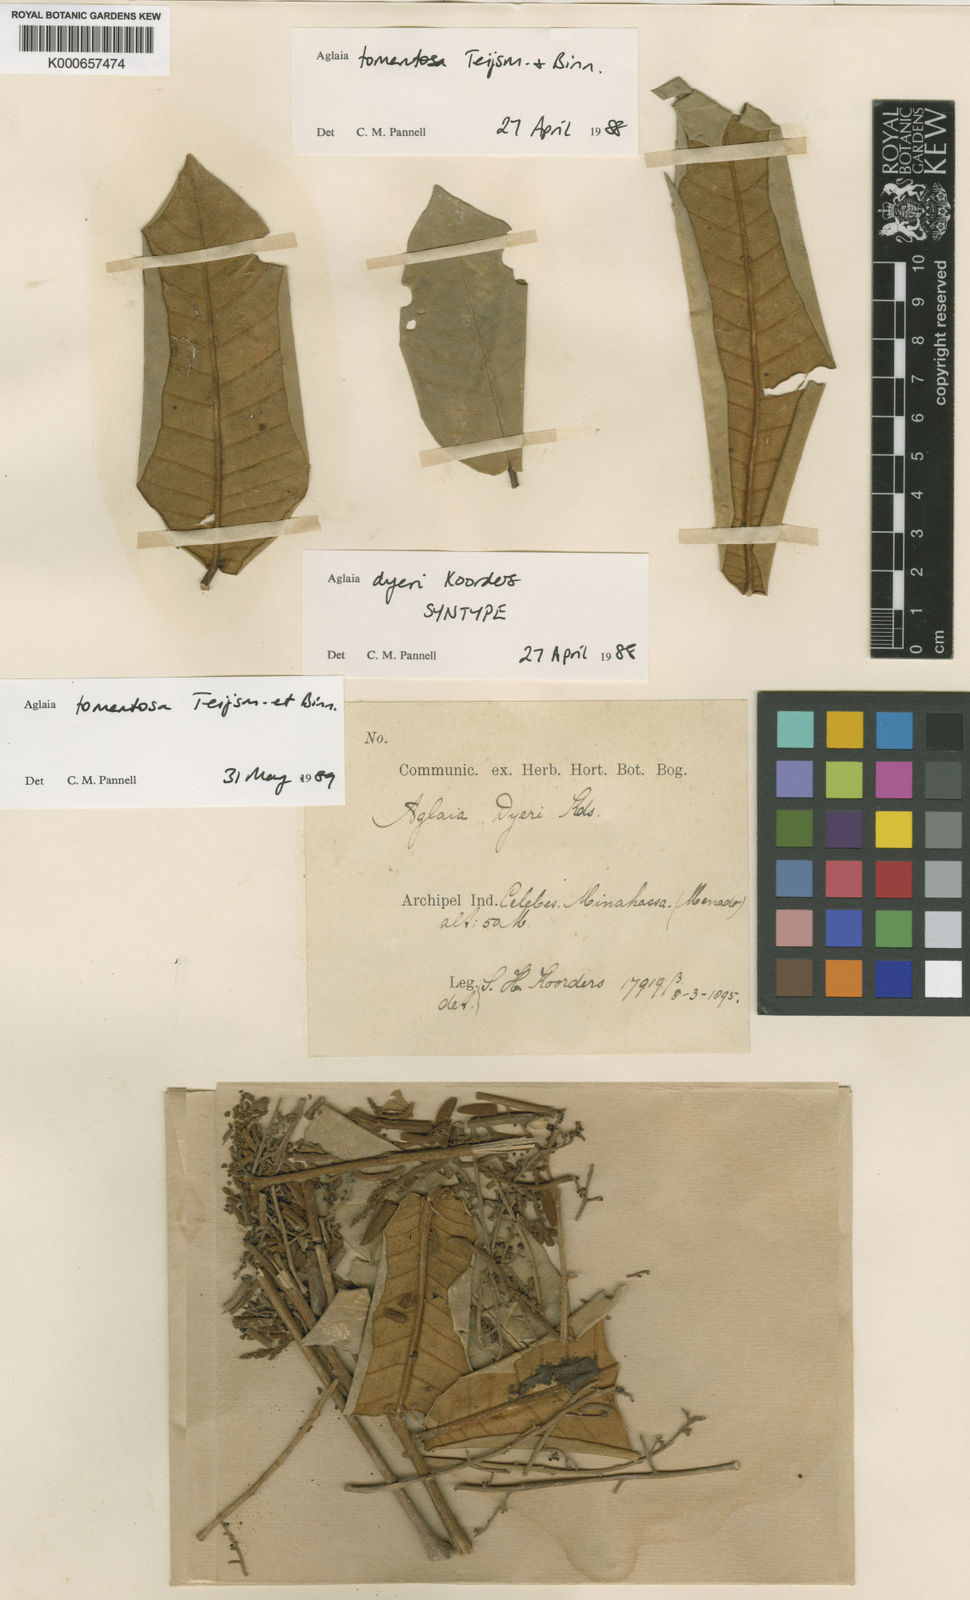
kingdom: Plantae
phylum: Tracheophyta
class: Magnoliopsida
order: Sapindales
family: Meliaceae
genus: Aglaia
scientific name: Aglaia tomentosa
